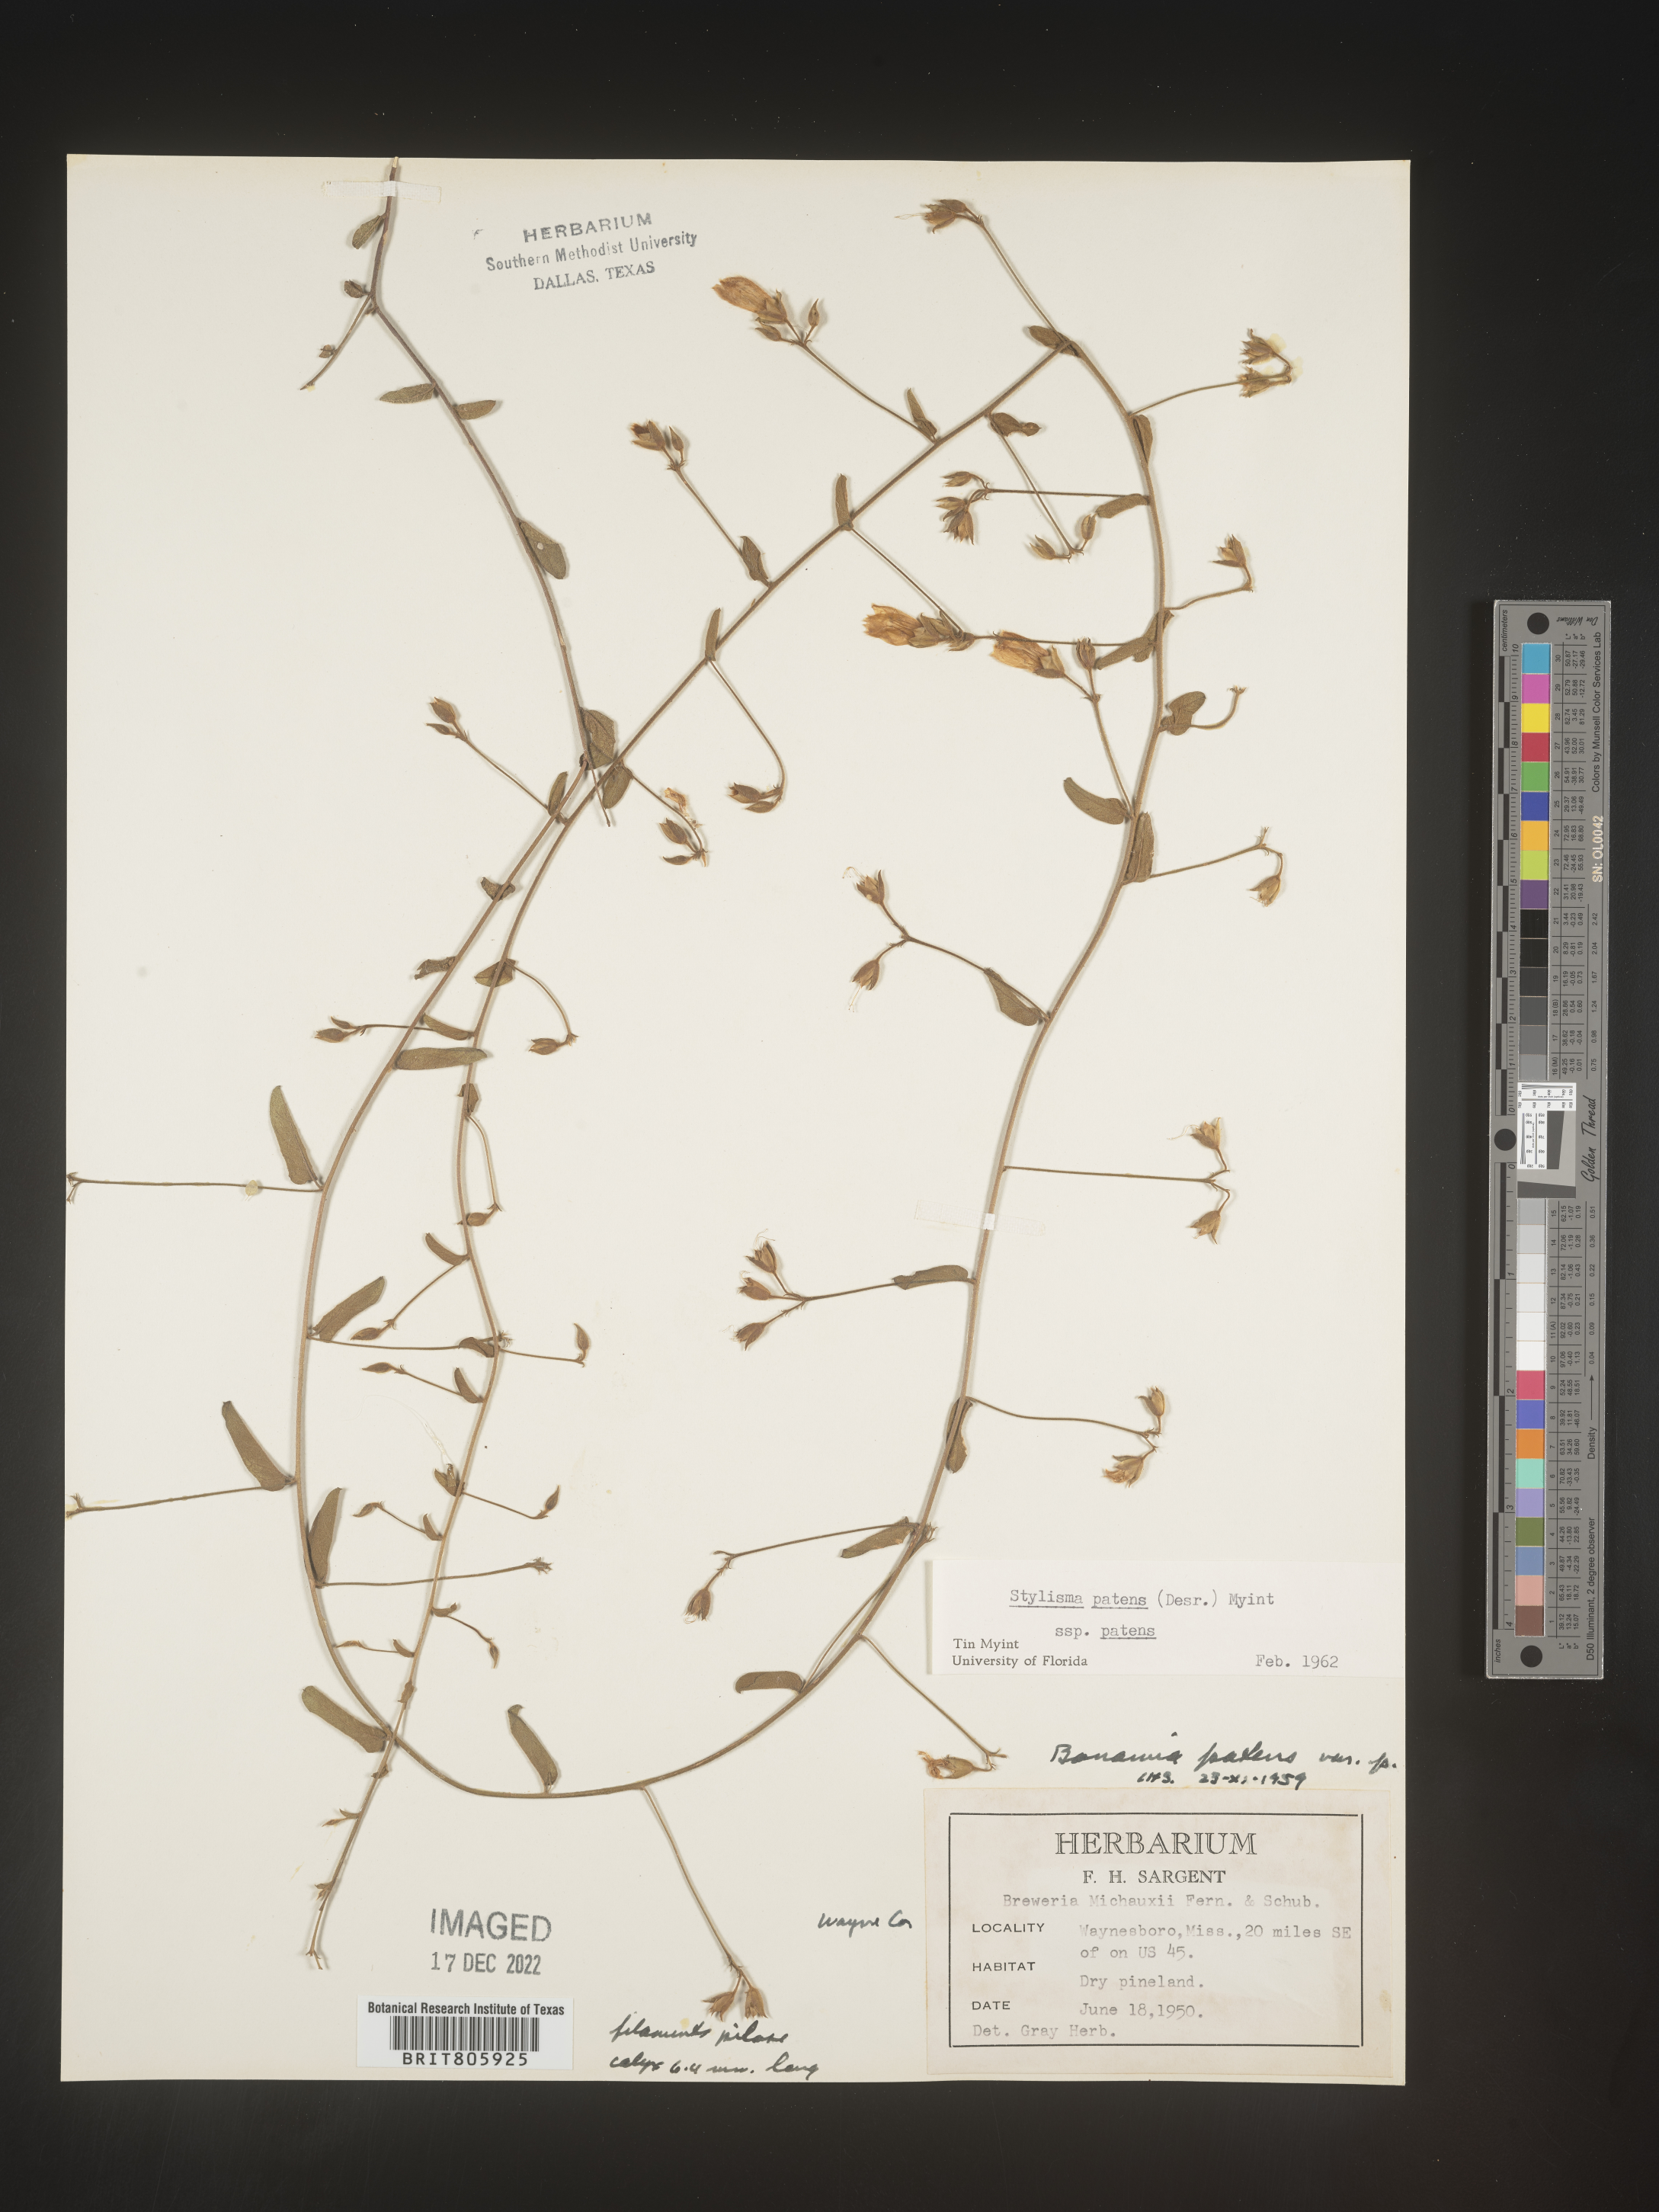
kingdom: Plantae
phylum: Tracheophyta
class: Magnoliopsida
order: Solanales
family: Convolvulaceae
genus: Stylisma
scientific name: Stylisma
